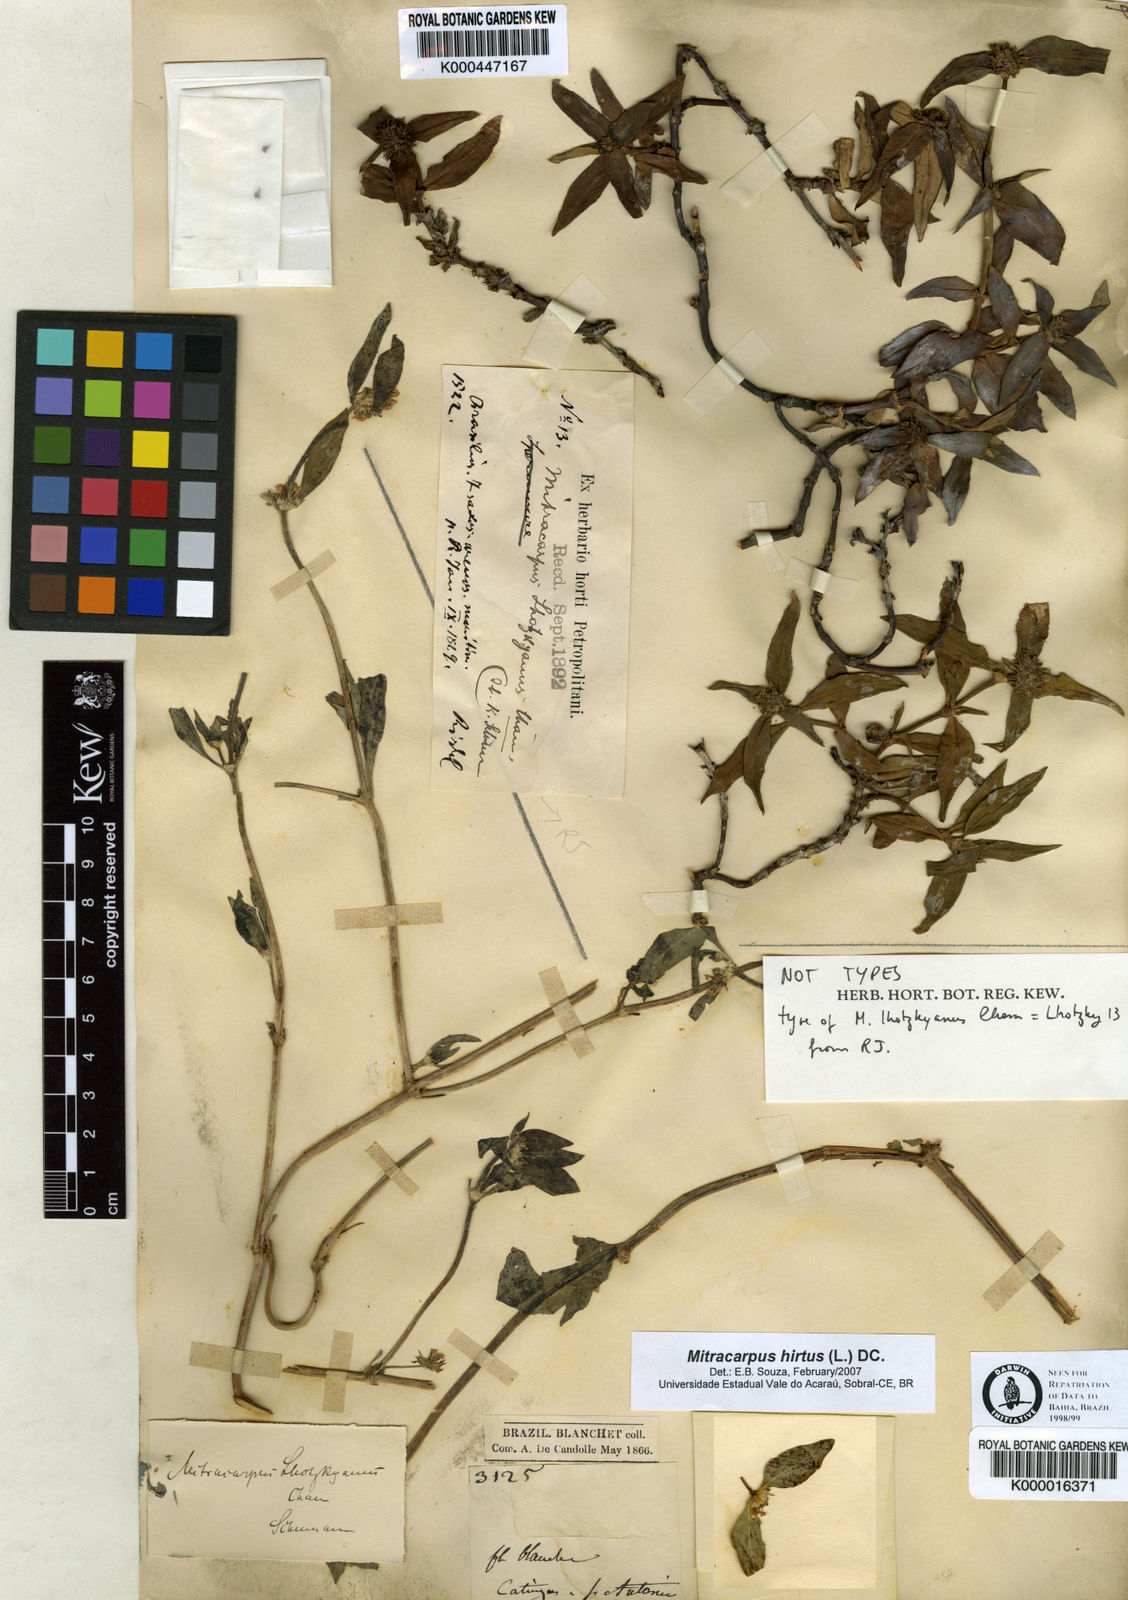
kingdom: Plantae
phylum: Tracheophyta
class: Magnoliopsida
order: Gentianales
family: Rubiaceae
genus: Mitracarpus
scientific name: Mitracarpus hirtus
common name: Tropical girdlepod
